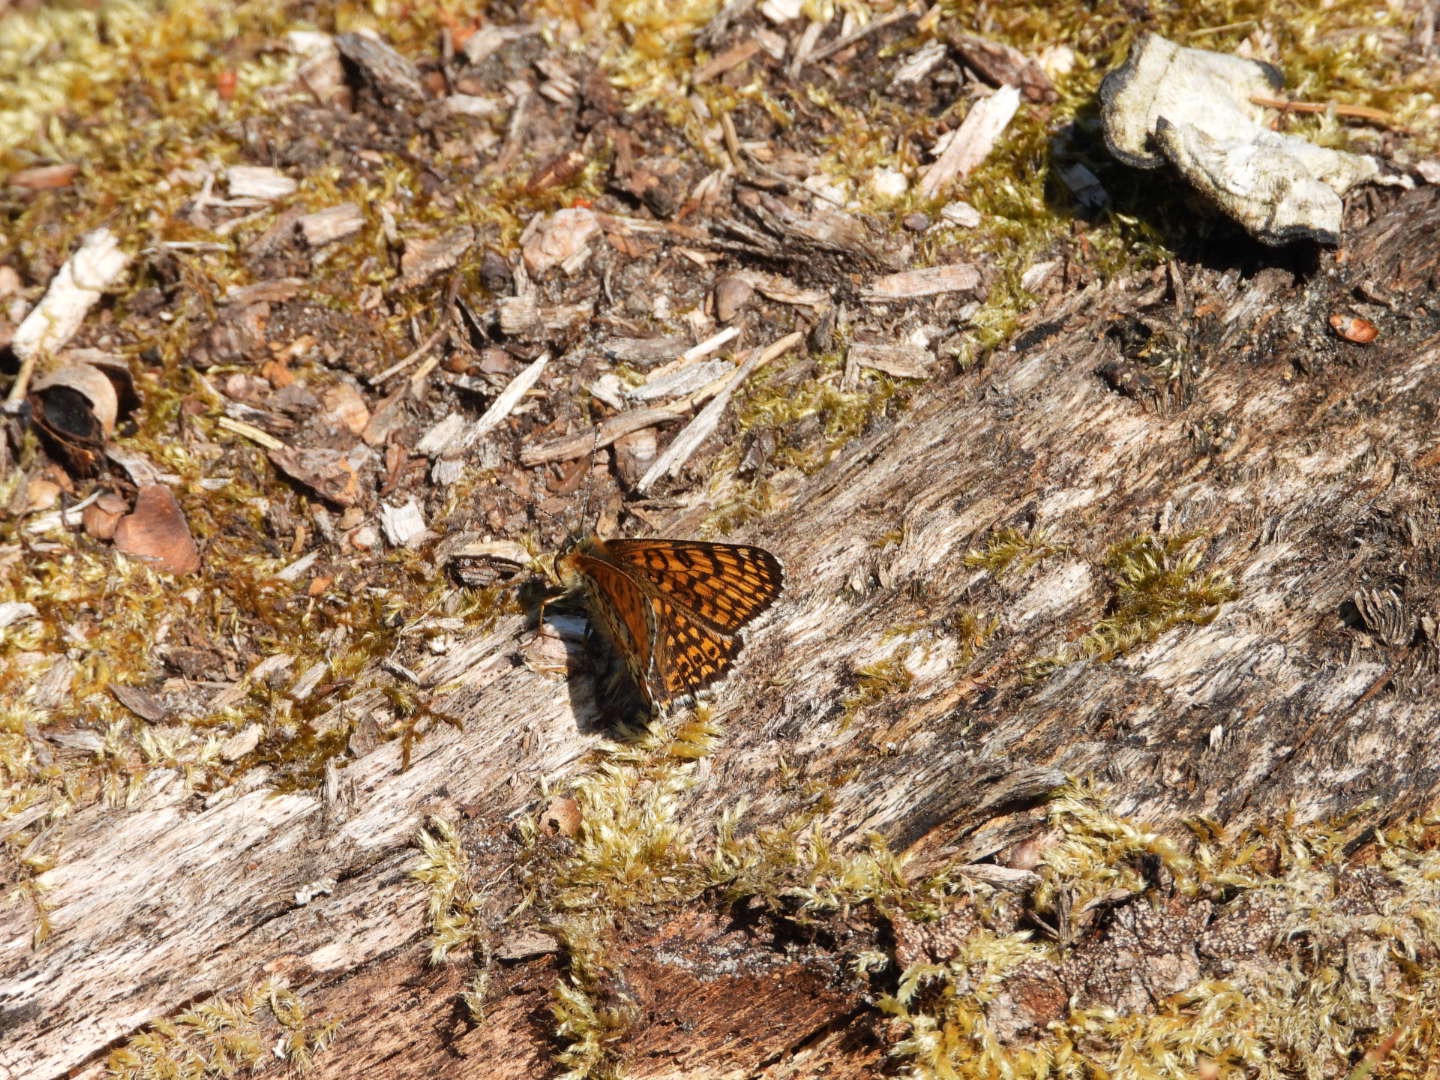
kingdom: Animalia
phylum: Arthropoda
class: Insecta
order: Lepidoptera
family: Nymphalidae
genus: Melitaea
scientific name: Melitaea cinxia
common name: Okkergul pletvinge
